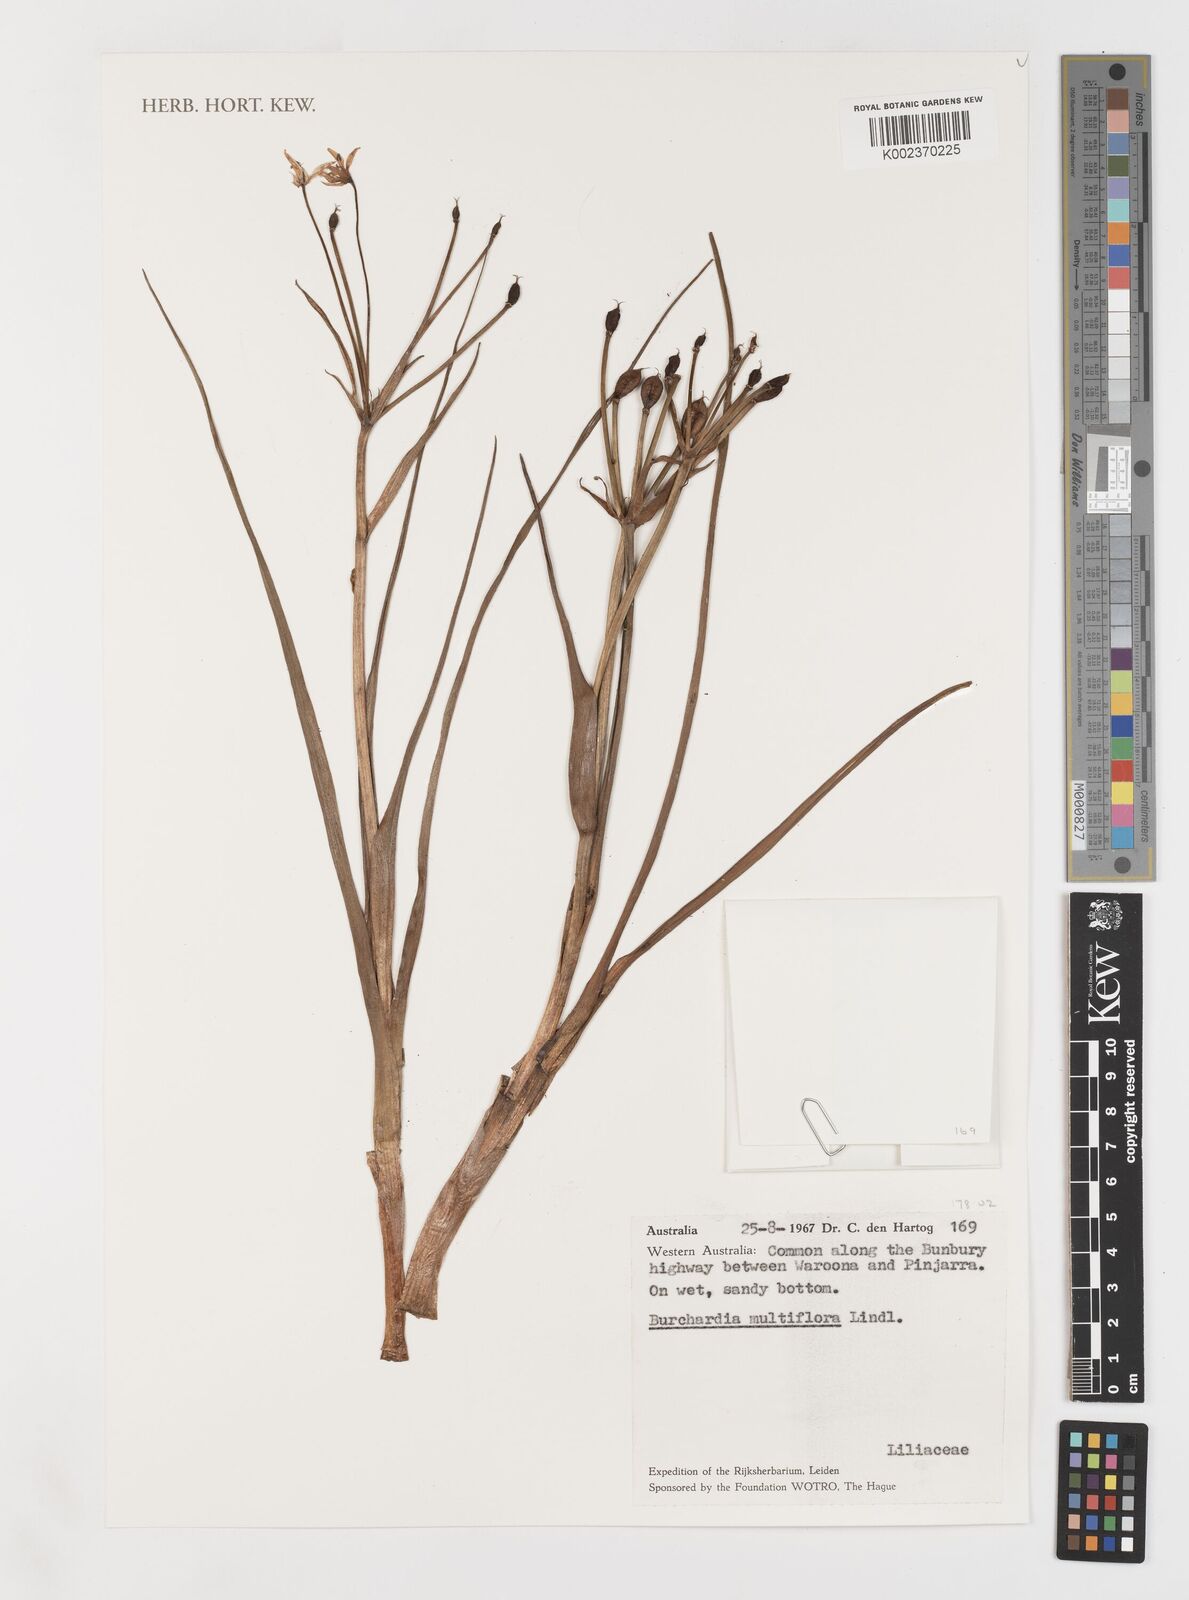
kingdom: Plantae
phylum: Tracheophyta
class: Liliopsida
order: Liliales
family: Colchicaceae
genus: Burchardia
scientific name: Burchardia multiflora
